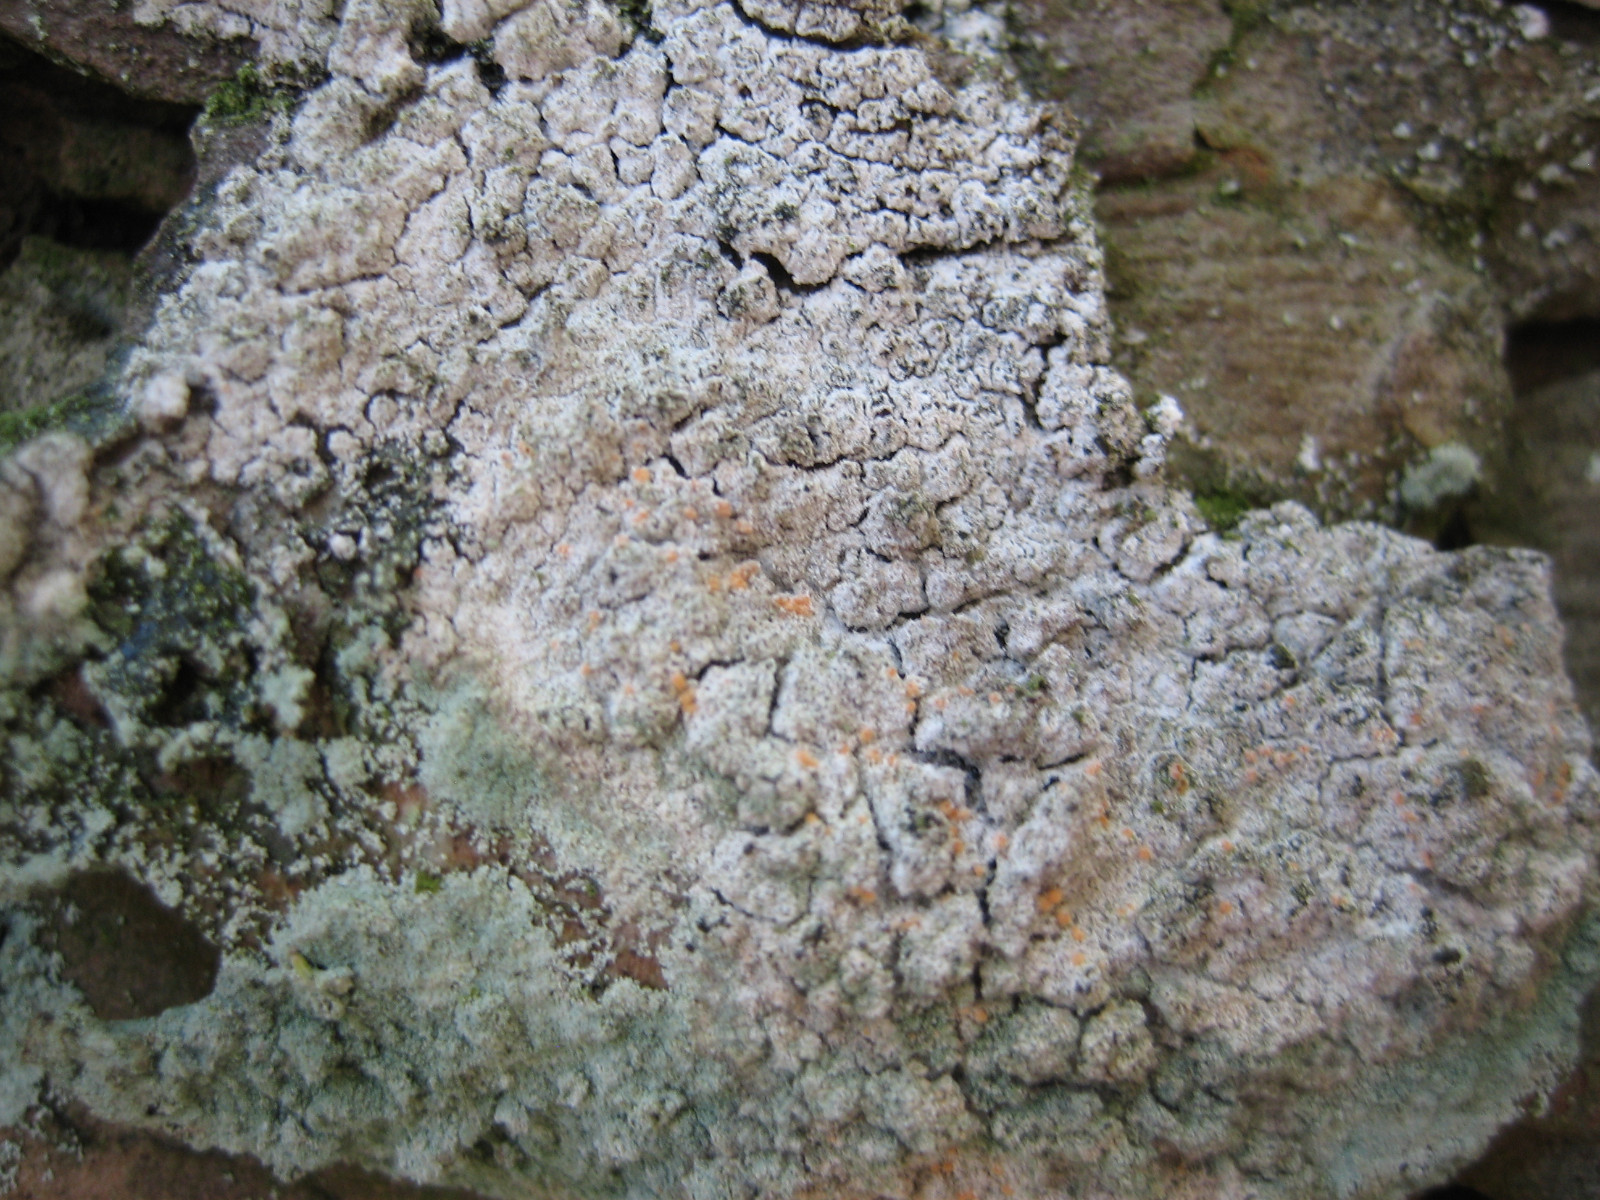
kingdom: Fungi
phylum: Ascomycota
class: Sordariomycetes
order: Hypocreales
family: Bionectriaceae
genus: Paranectria
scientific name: Paranectria oropensis
